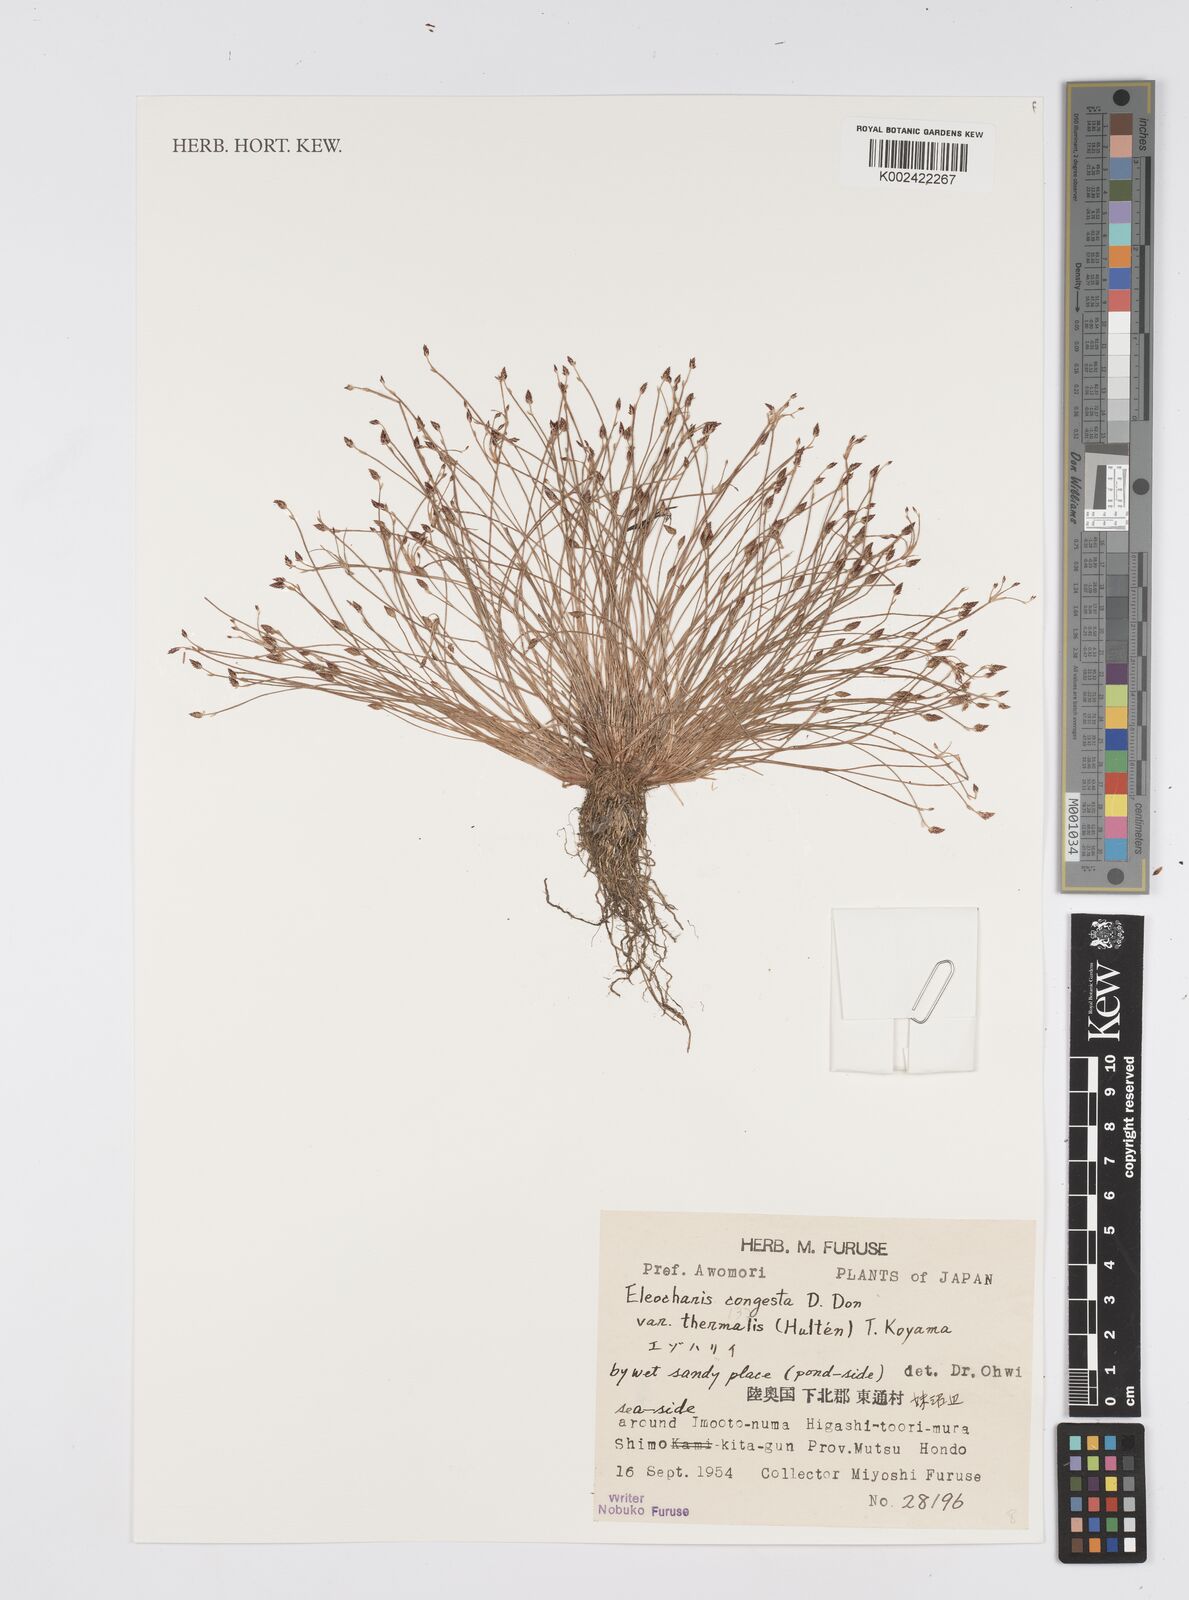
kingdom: Plantae
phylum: Tracheophyta
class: Liliopsida
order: Poales
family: Cyperaceae
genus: Eleocharis
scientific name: Eleocharis congesta
